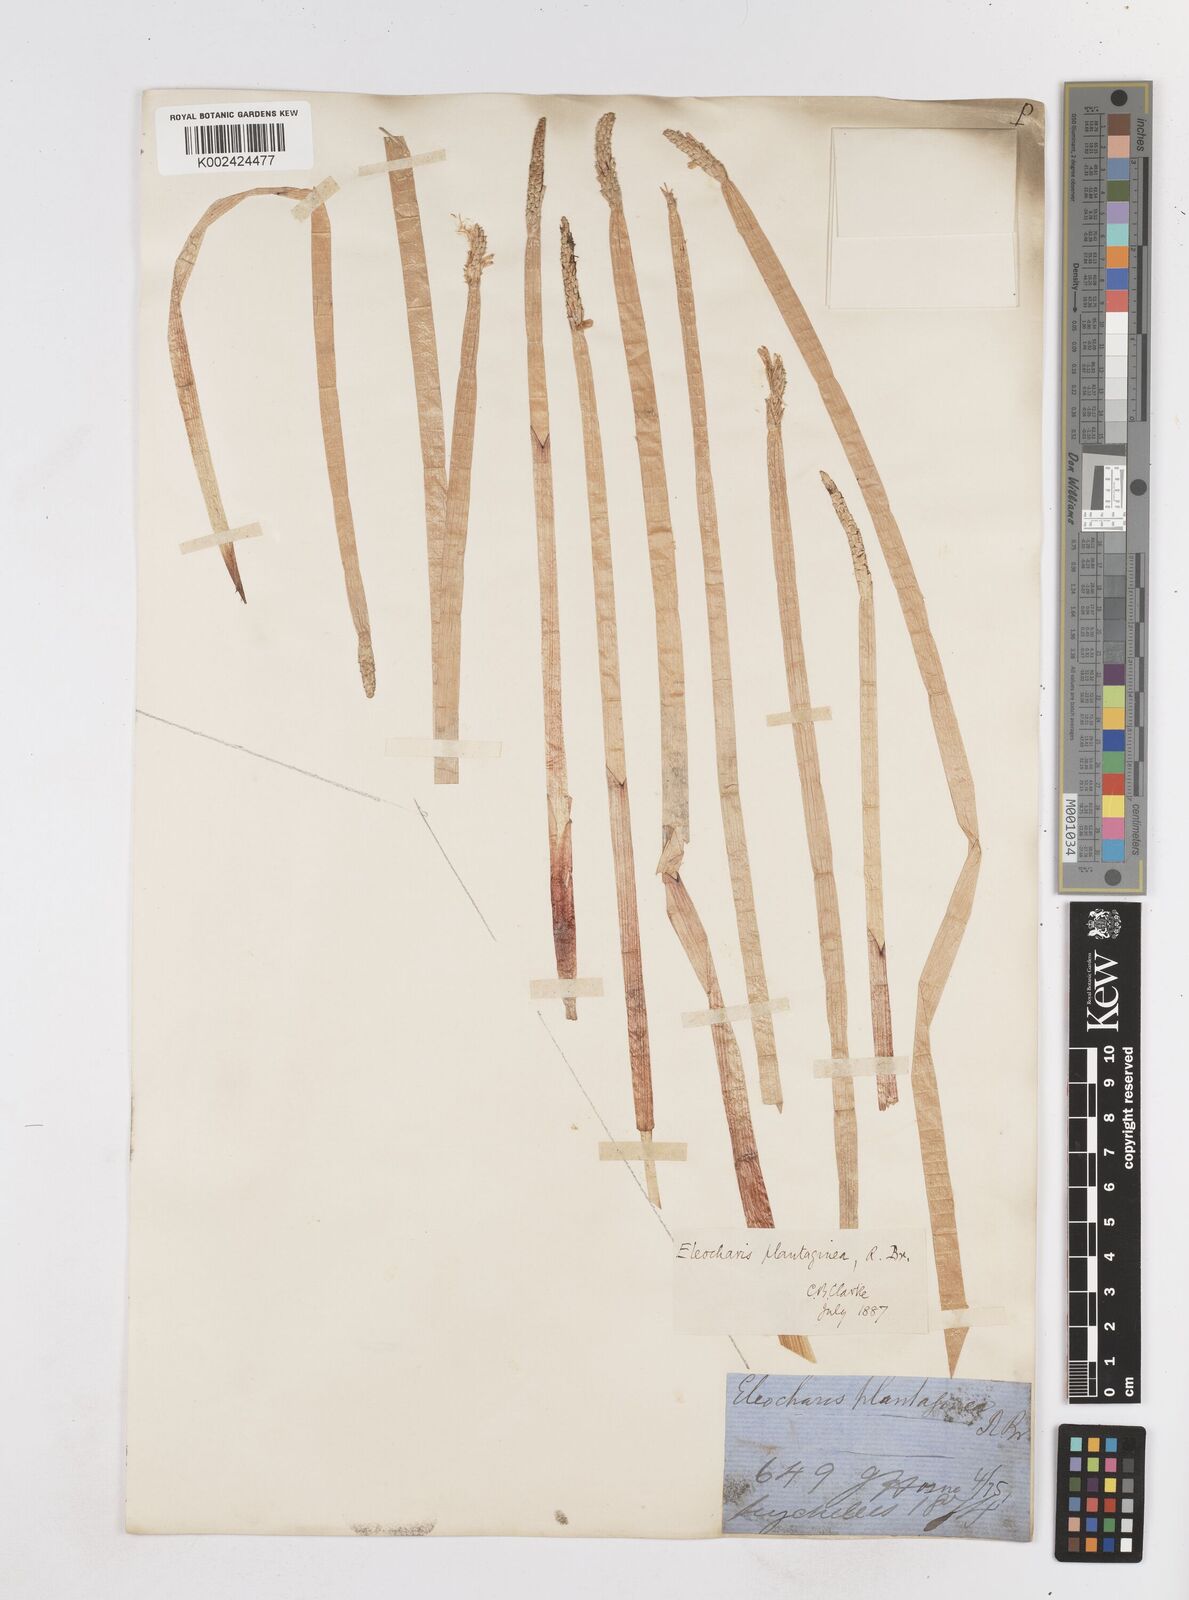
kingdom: Plantae
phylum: Tracheophyta
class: Liliopsida
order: Poales
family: Cyperaceae
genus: Eleocharis
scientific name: Eleocharis dulcis
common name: Chinese water chestnut
